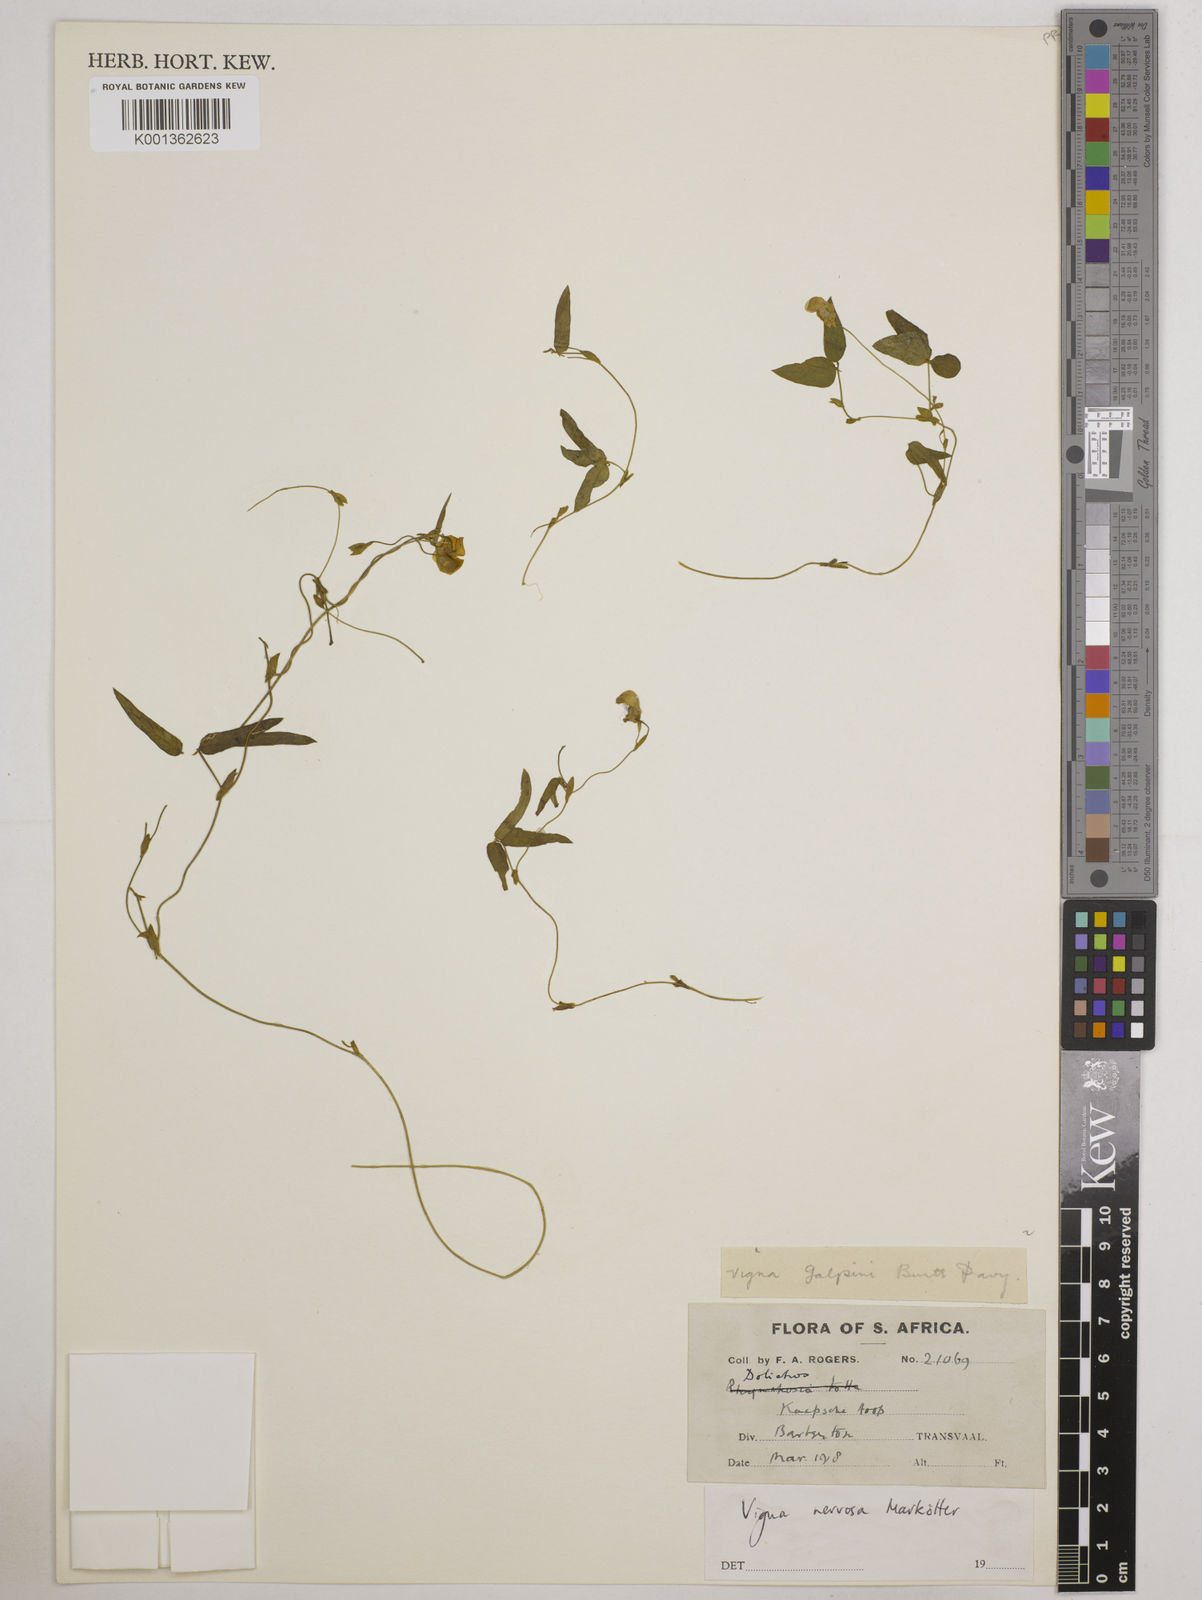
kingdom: Plantae
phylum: Tracheophyta
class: Magnoliopsida
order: Fabales
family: Fabaceae
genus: Vigna
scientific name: Vigna nervosa
